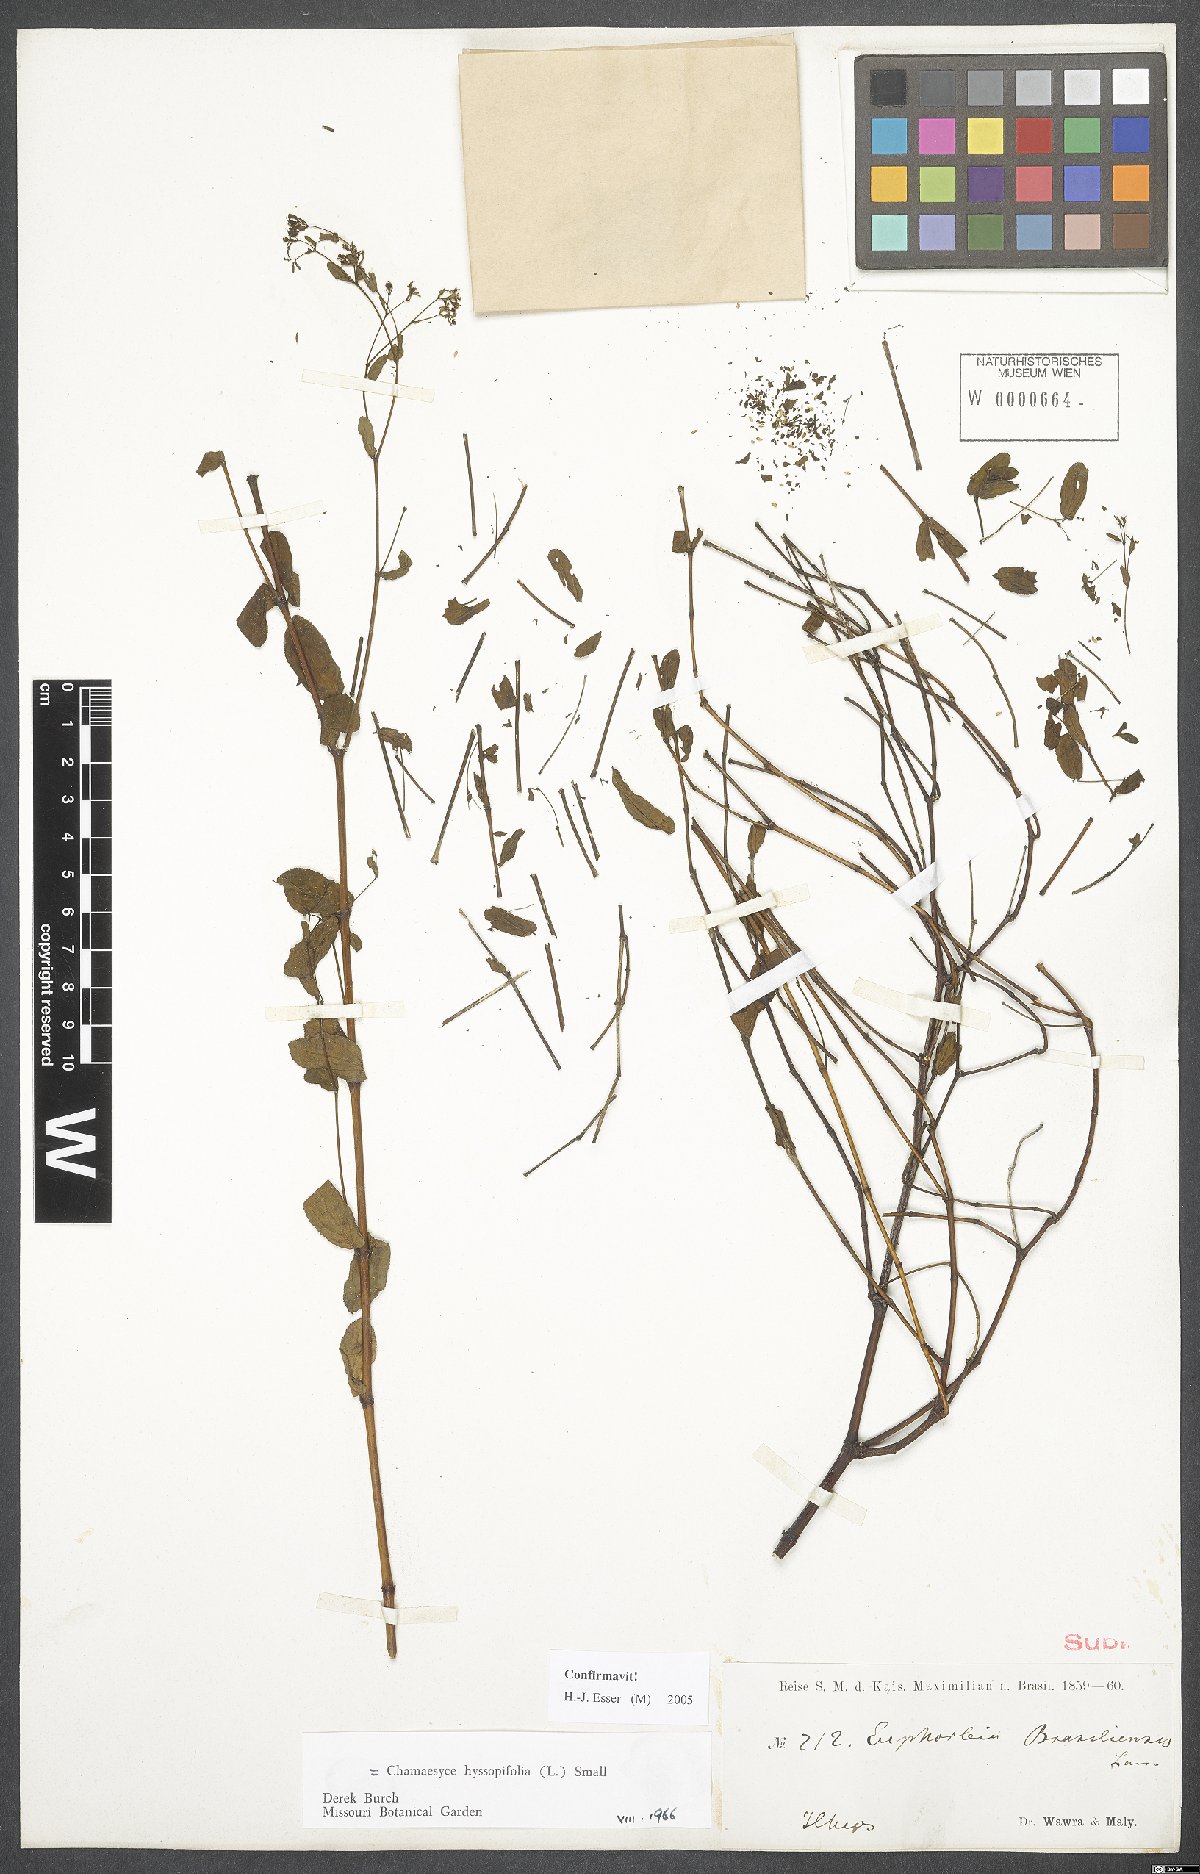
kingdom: Plantae
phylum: Tracheophyta
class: Magnoliopsida
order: Malpighiales
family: Euphorbiaceae
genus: Euphorbia
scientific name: Euphorbia hyssopifolia
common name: Hyssopleaf sandmat
